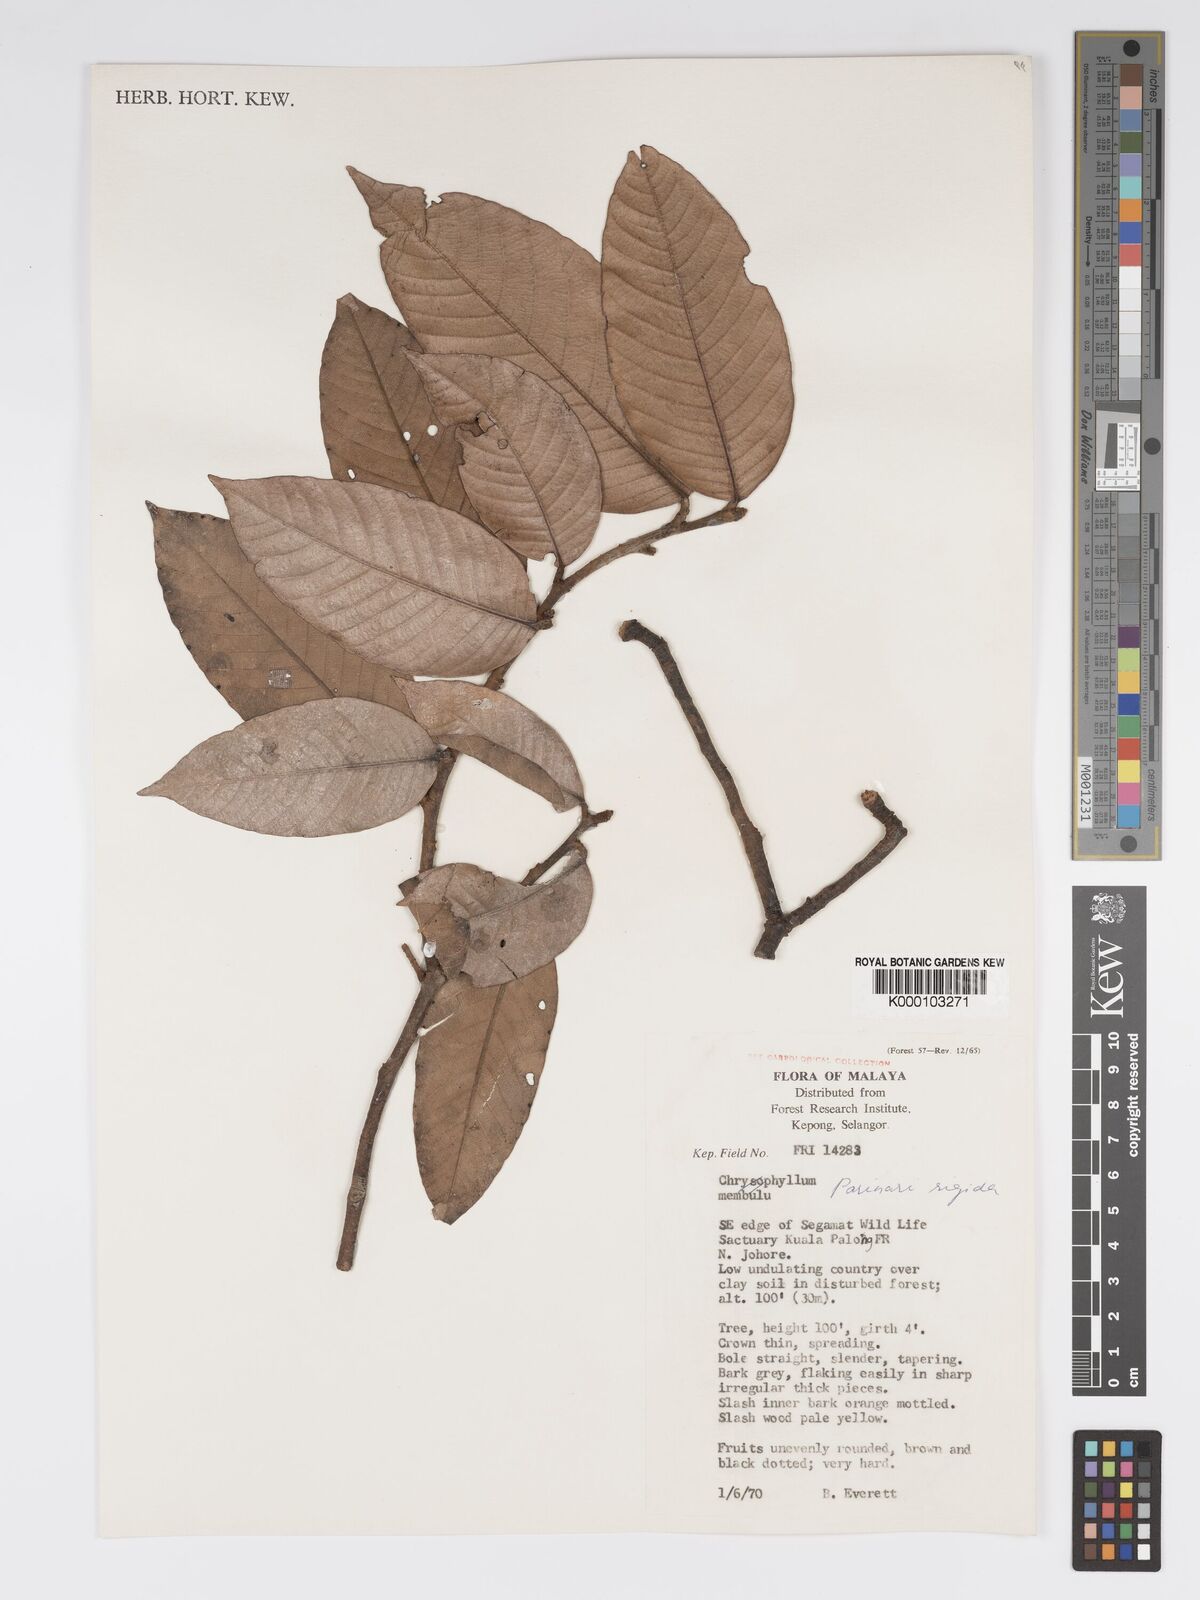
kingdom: Plantae
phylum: Tracheophyta
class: Magnoliopsida
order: Malpighiales
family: Chrysobalanaceae
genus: Parinari
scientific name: Parinari rigida
